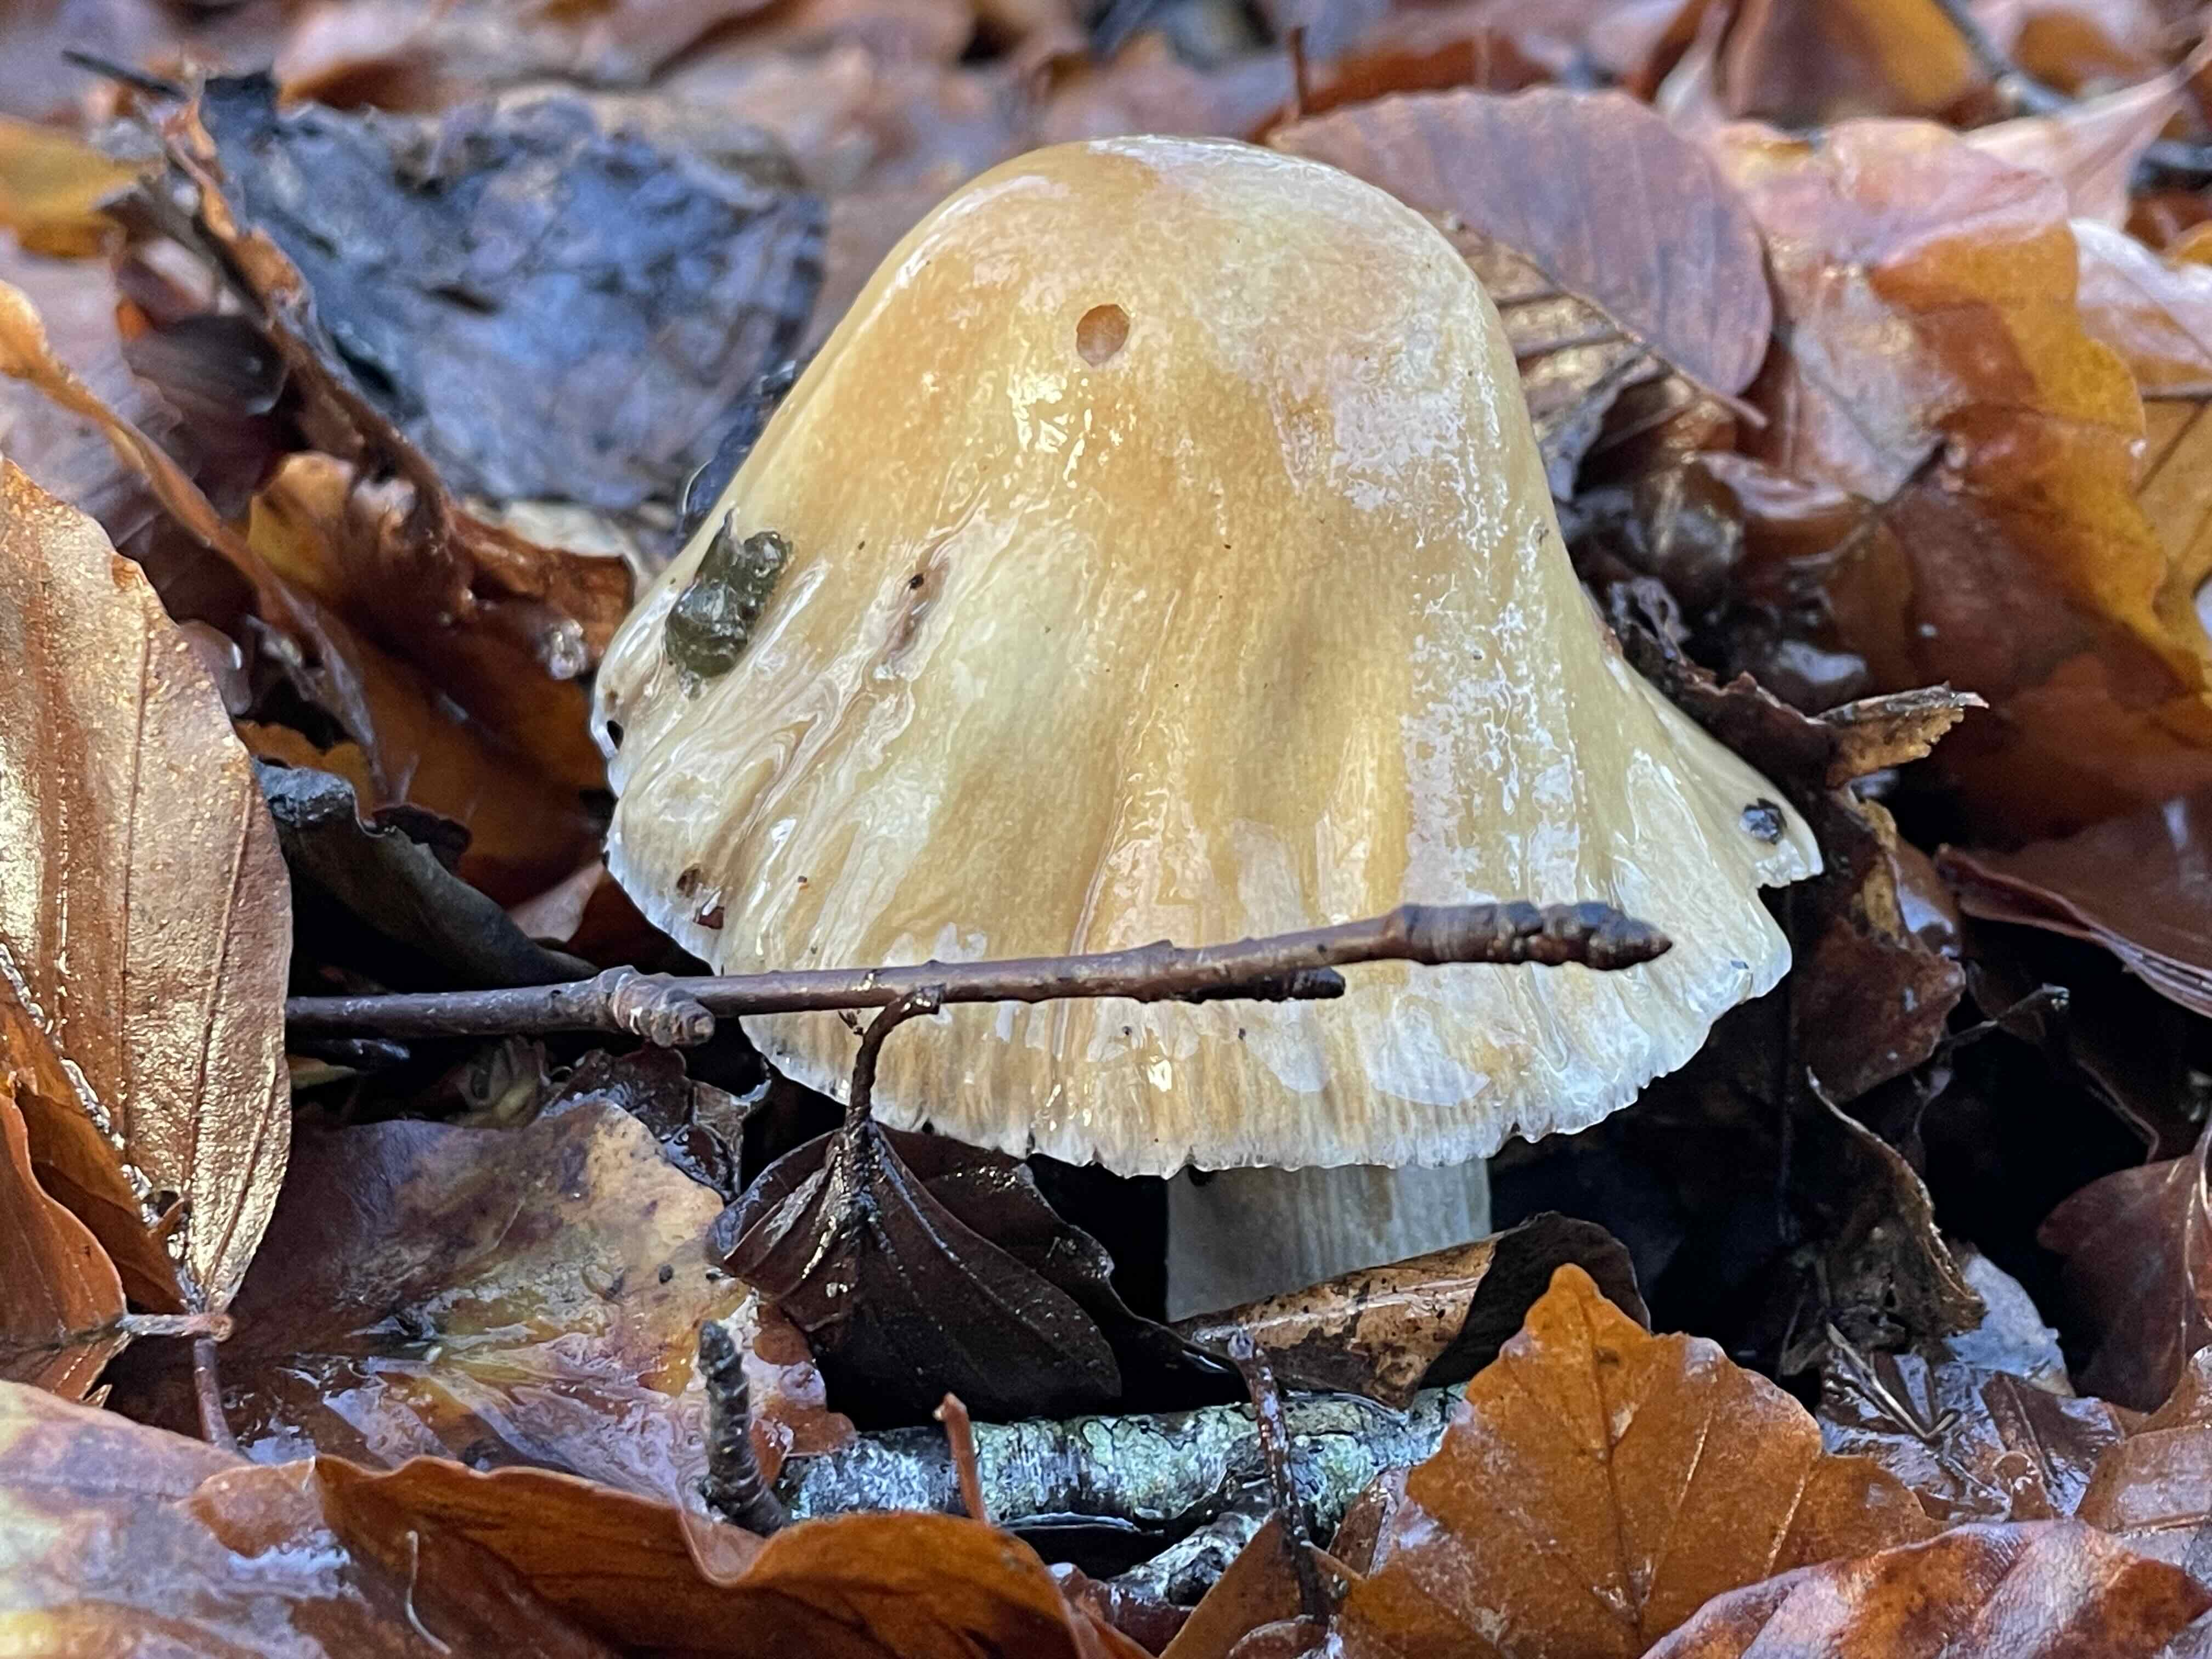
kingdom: Fungi
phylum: Basidiomycota
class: Agaricomycetes
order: Agaricales
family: Cortinariaceae
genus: Cortinarius
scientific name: Cortinarius elatior
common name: høj slørhat
